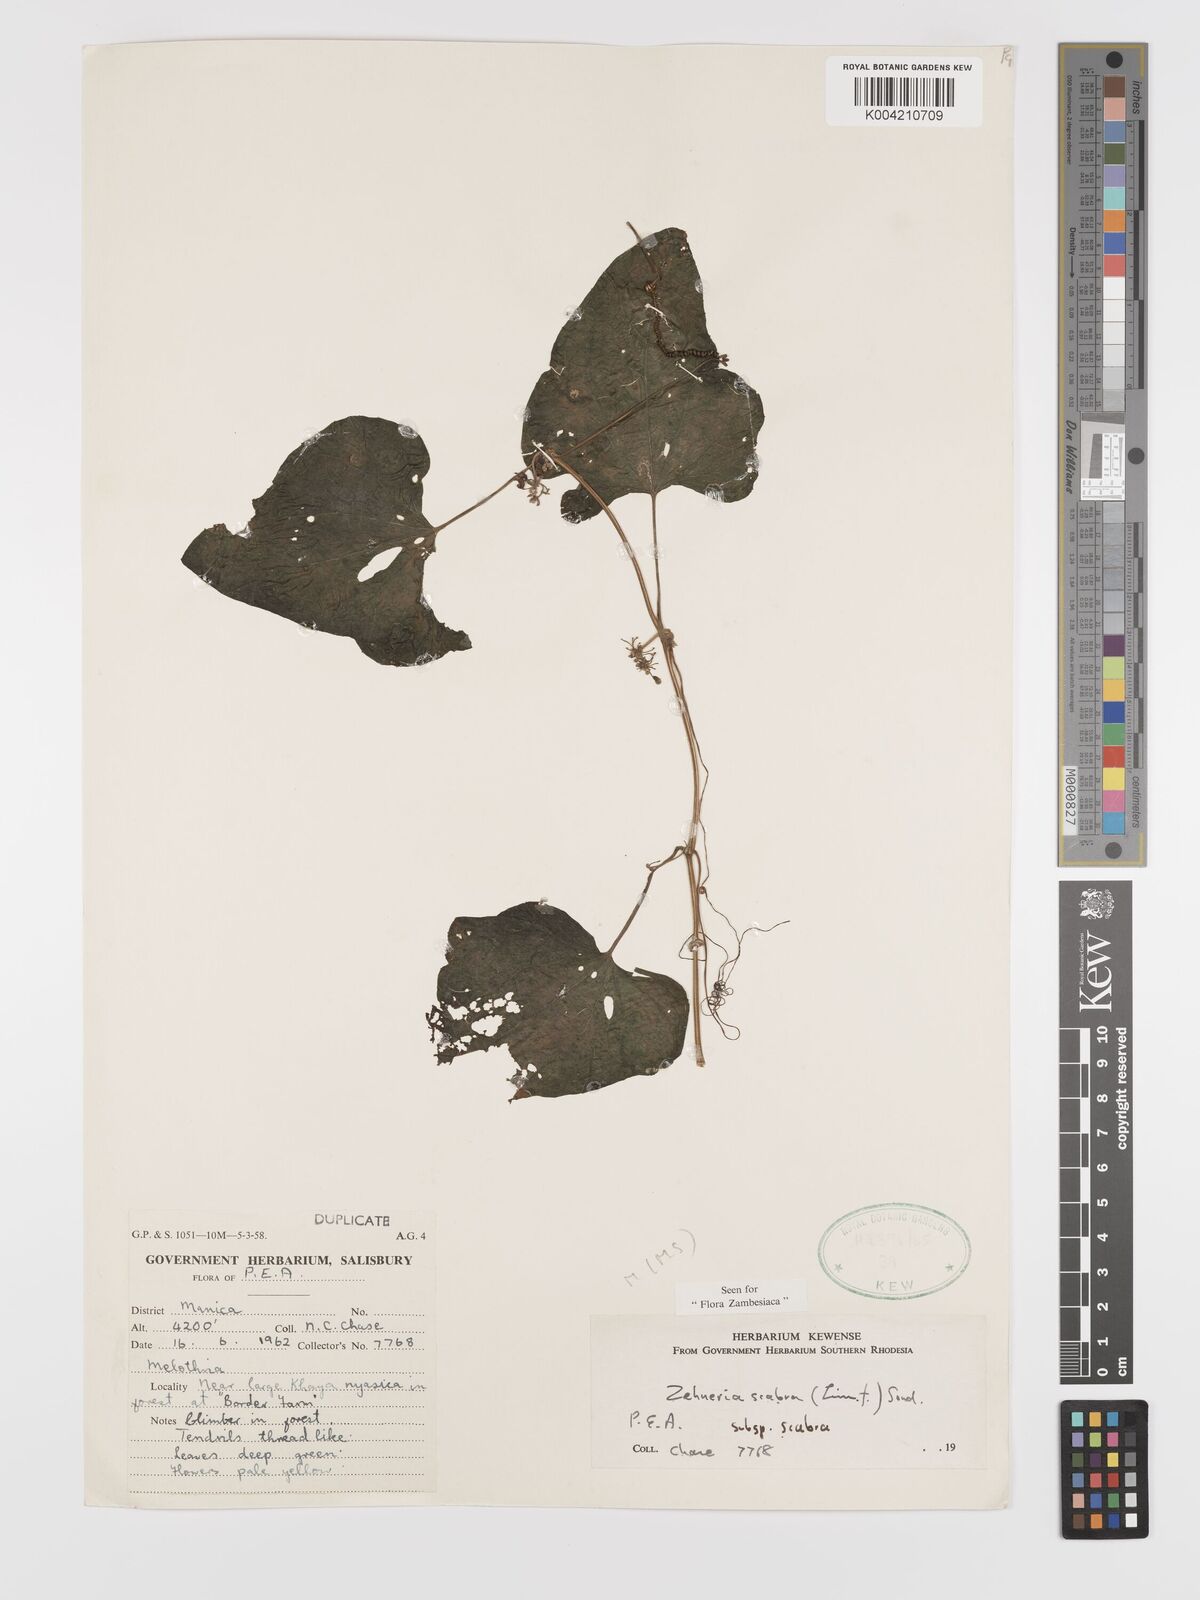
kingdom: Plantae
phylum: Tracheophyta
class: Magnoliopsida
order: Cucurbitales
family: Cucurbitaceae
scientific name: Cucurbitaceae
